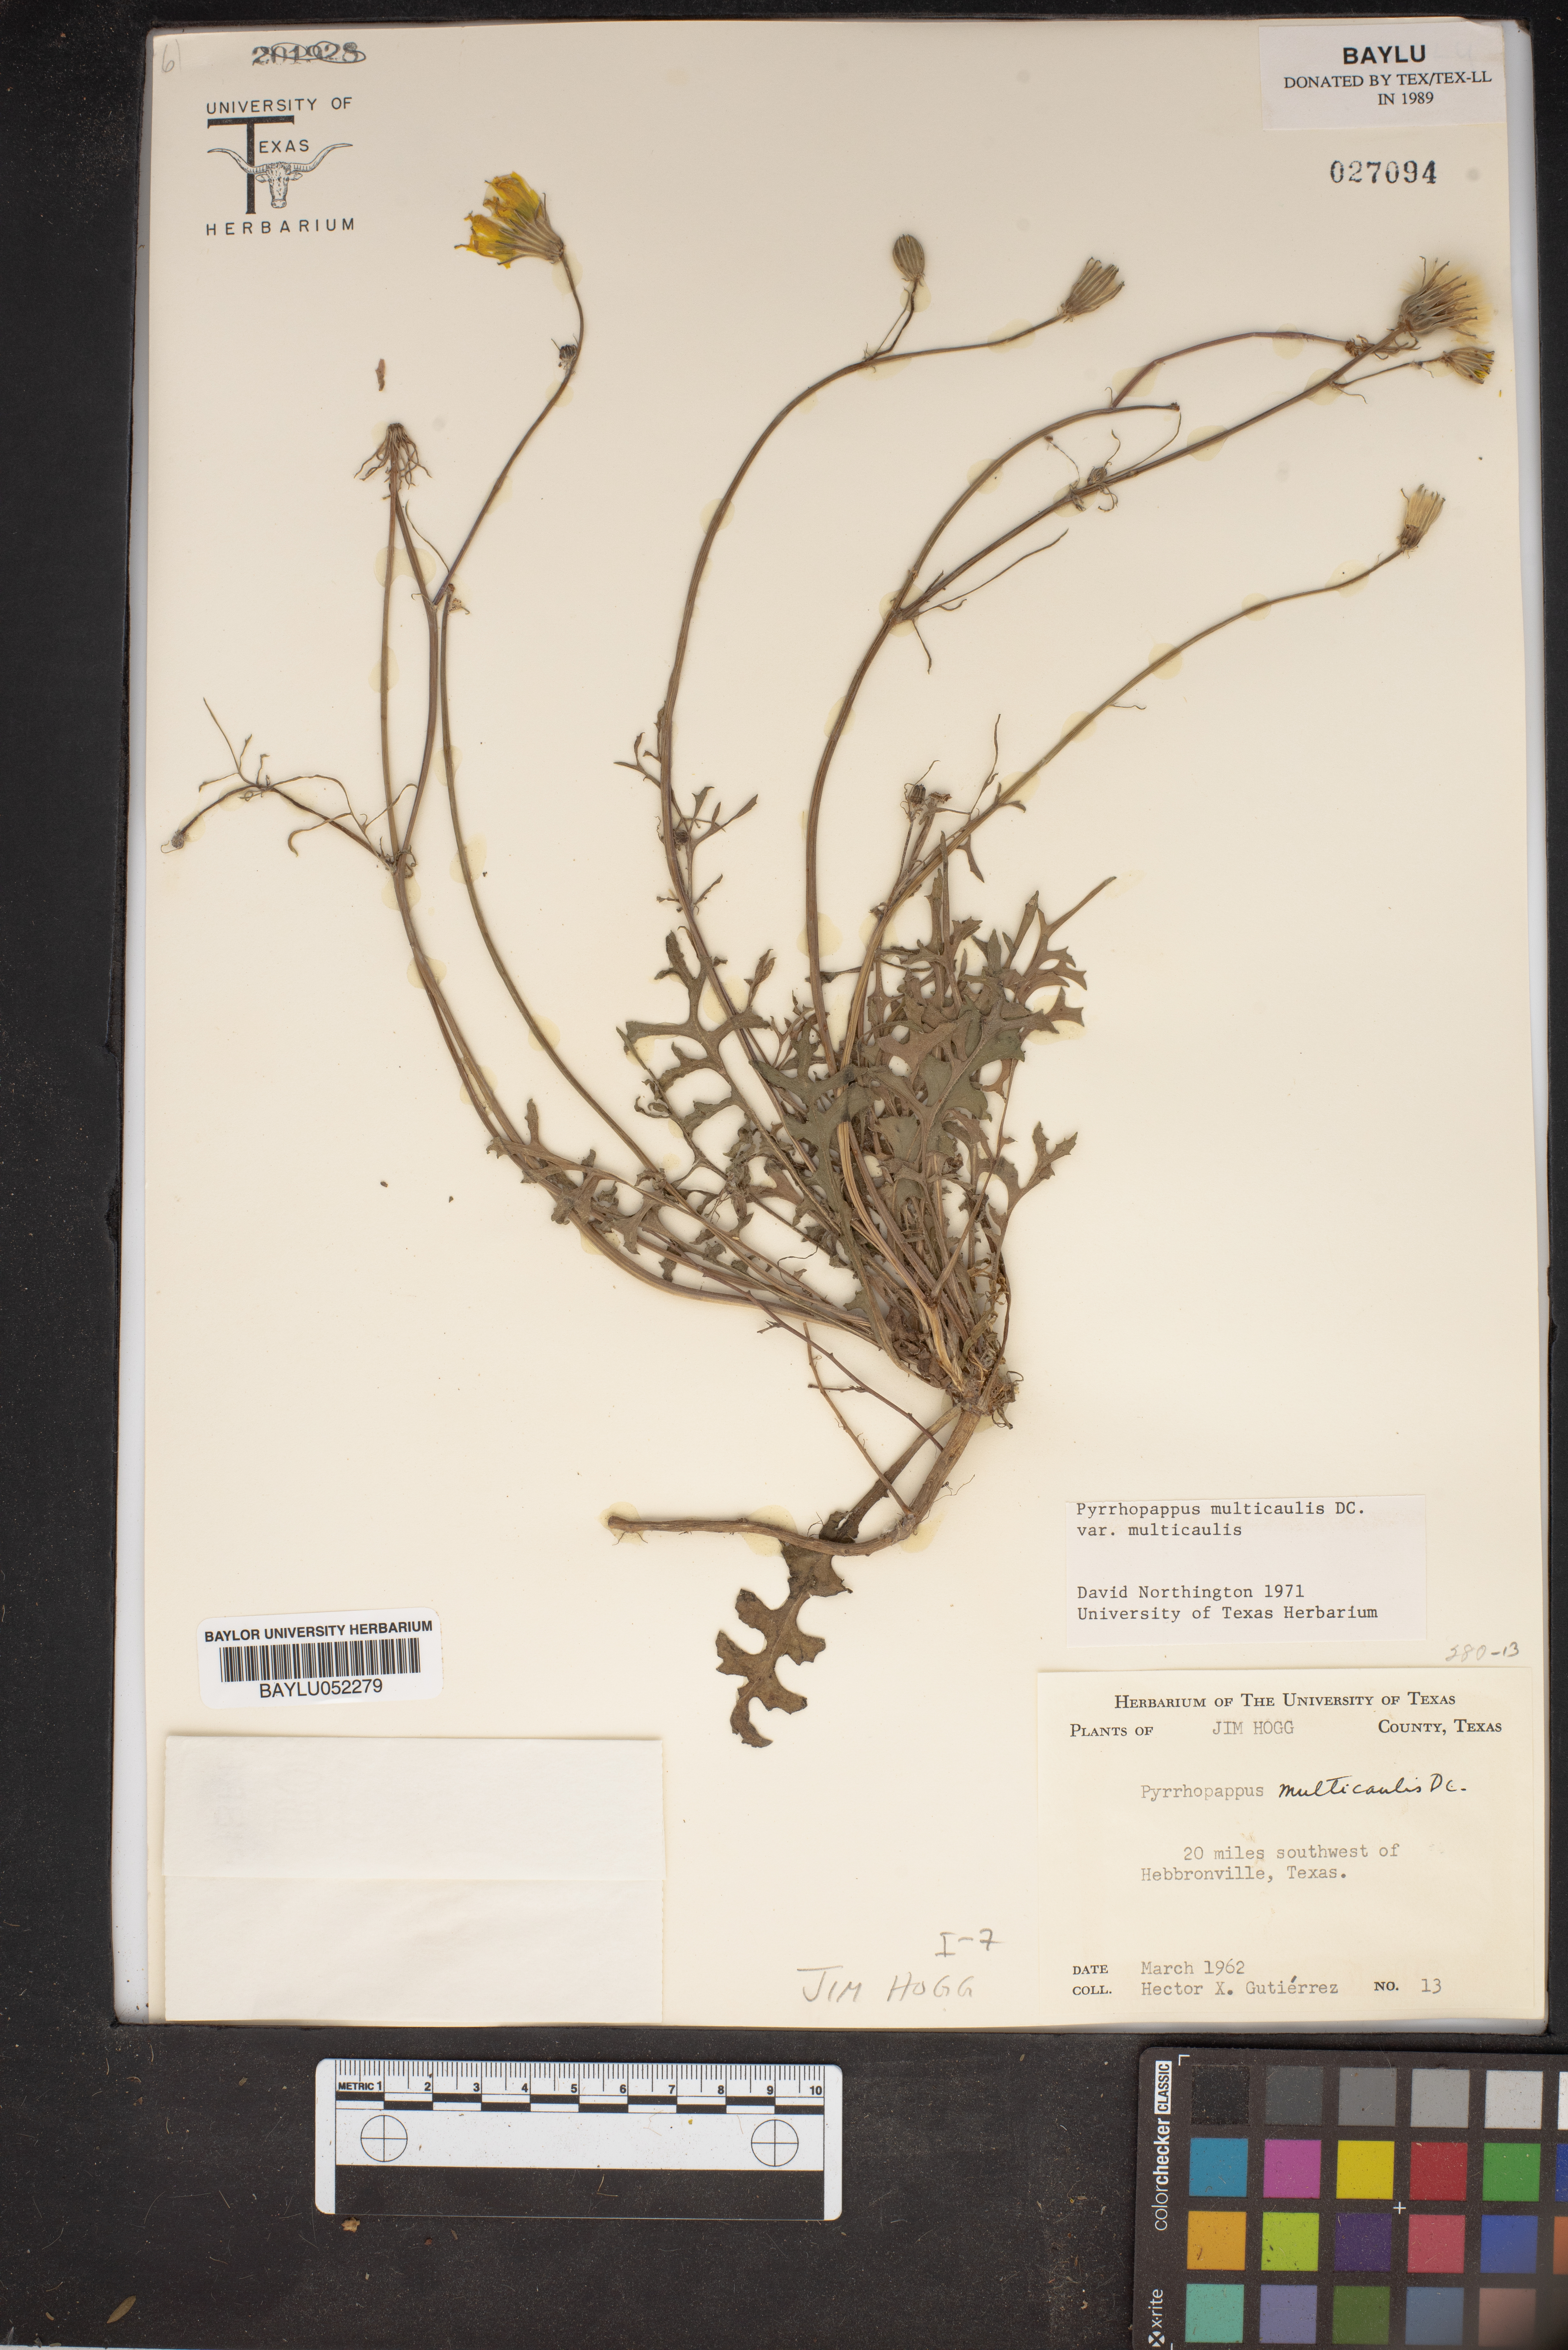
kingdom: Plantae
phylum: Tracheophyta
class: Magnoliopsida
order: Asterales
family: Asteraceae
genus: Pyrrhopappus
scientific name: Pyrrhopappus pauciflorus
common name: Texas false dandelion
